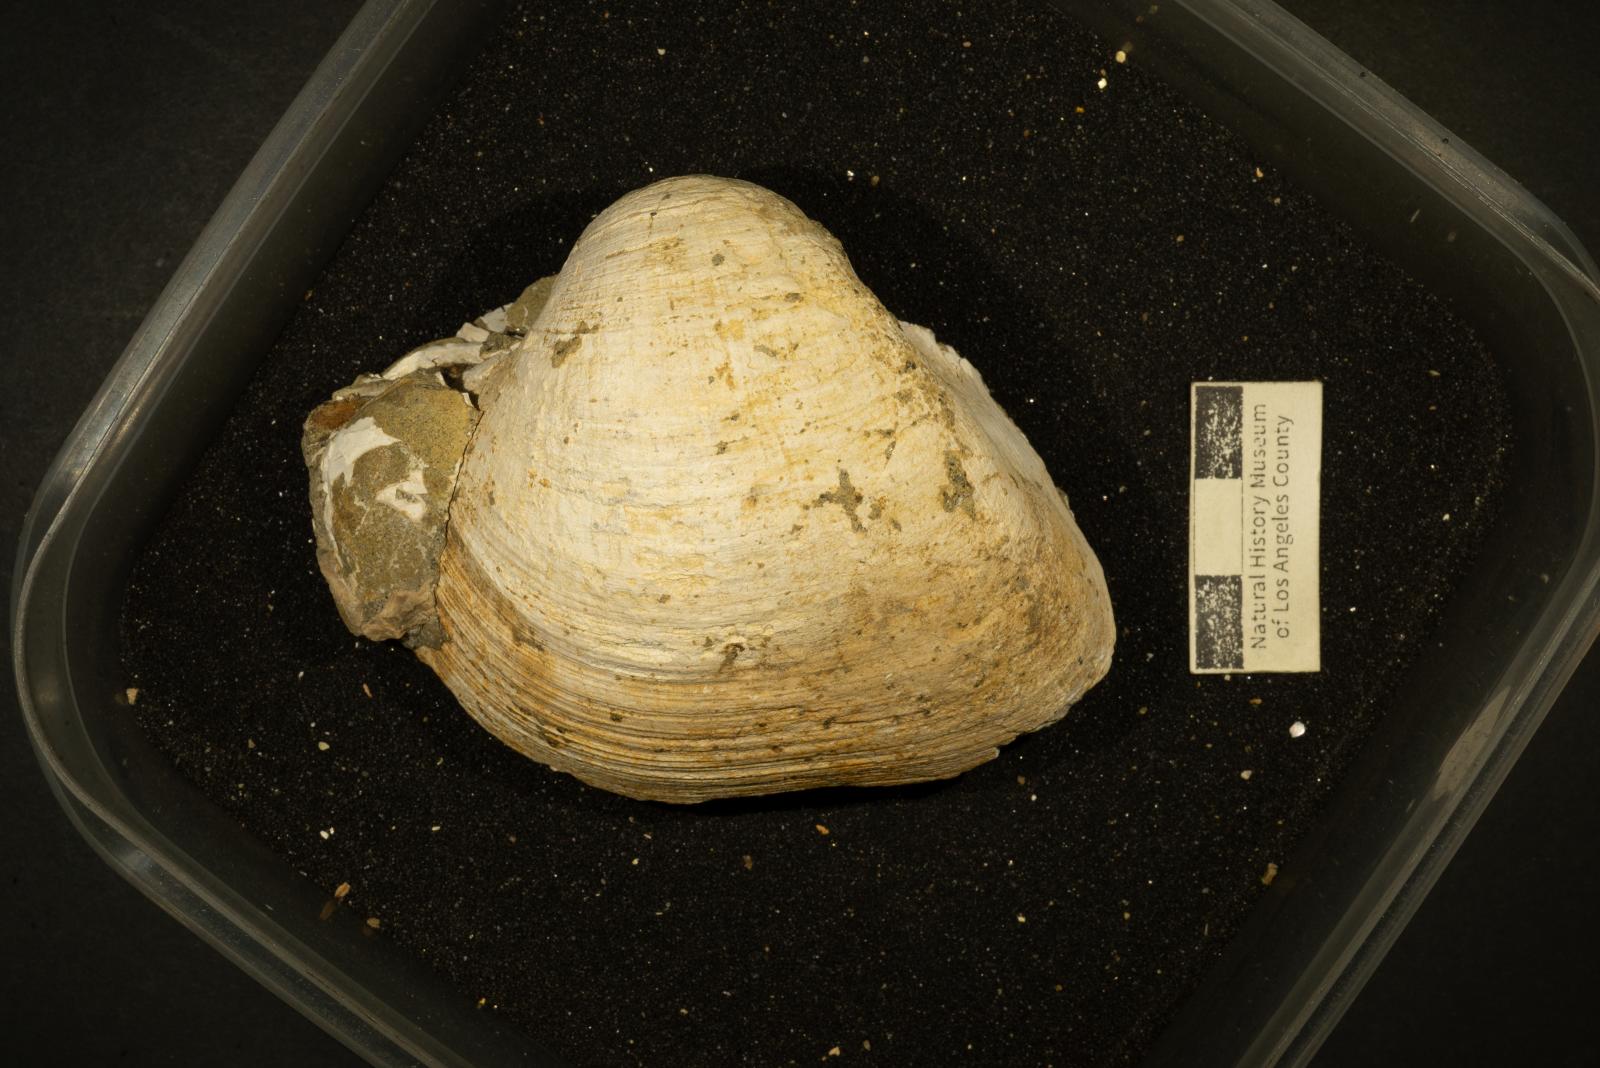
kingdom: Animalia
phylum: Mollusca
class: Bivalvia
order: Arcida
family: Cucullaeidae
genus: Cucullaea
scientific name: Cucullaea
